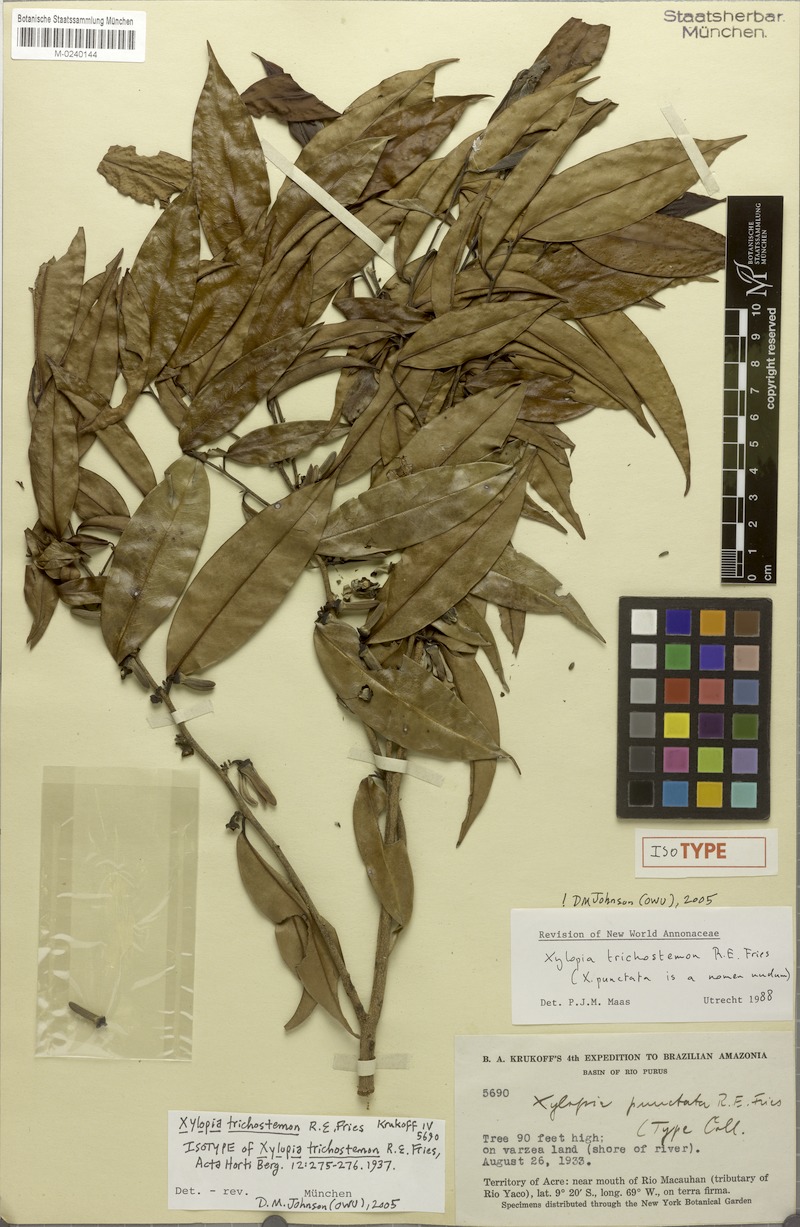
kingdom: Plantae
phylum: Tracheophyta
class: Magnoliopsida
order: Magnoliales
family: Annonaceae
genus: Xylopia
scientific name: Xylopia trichostemon
